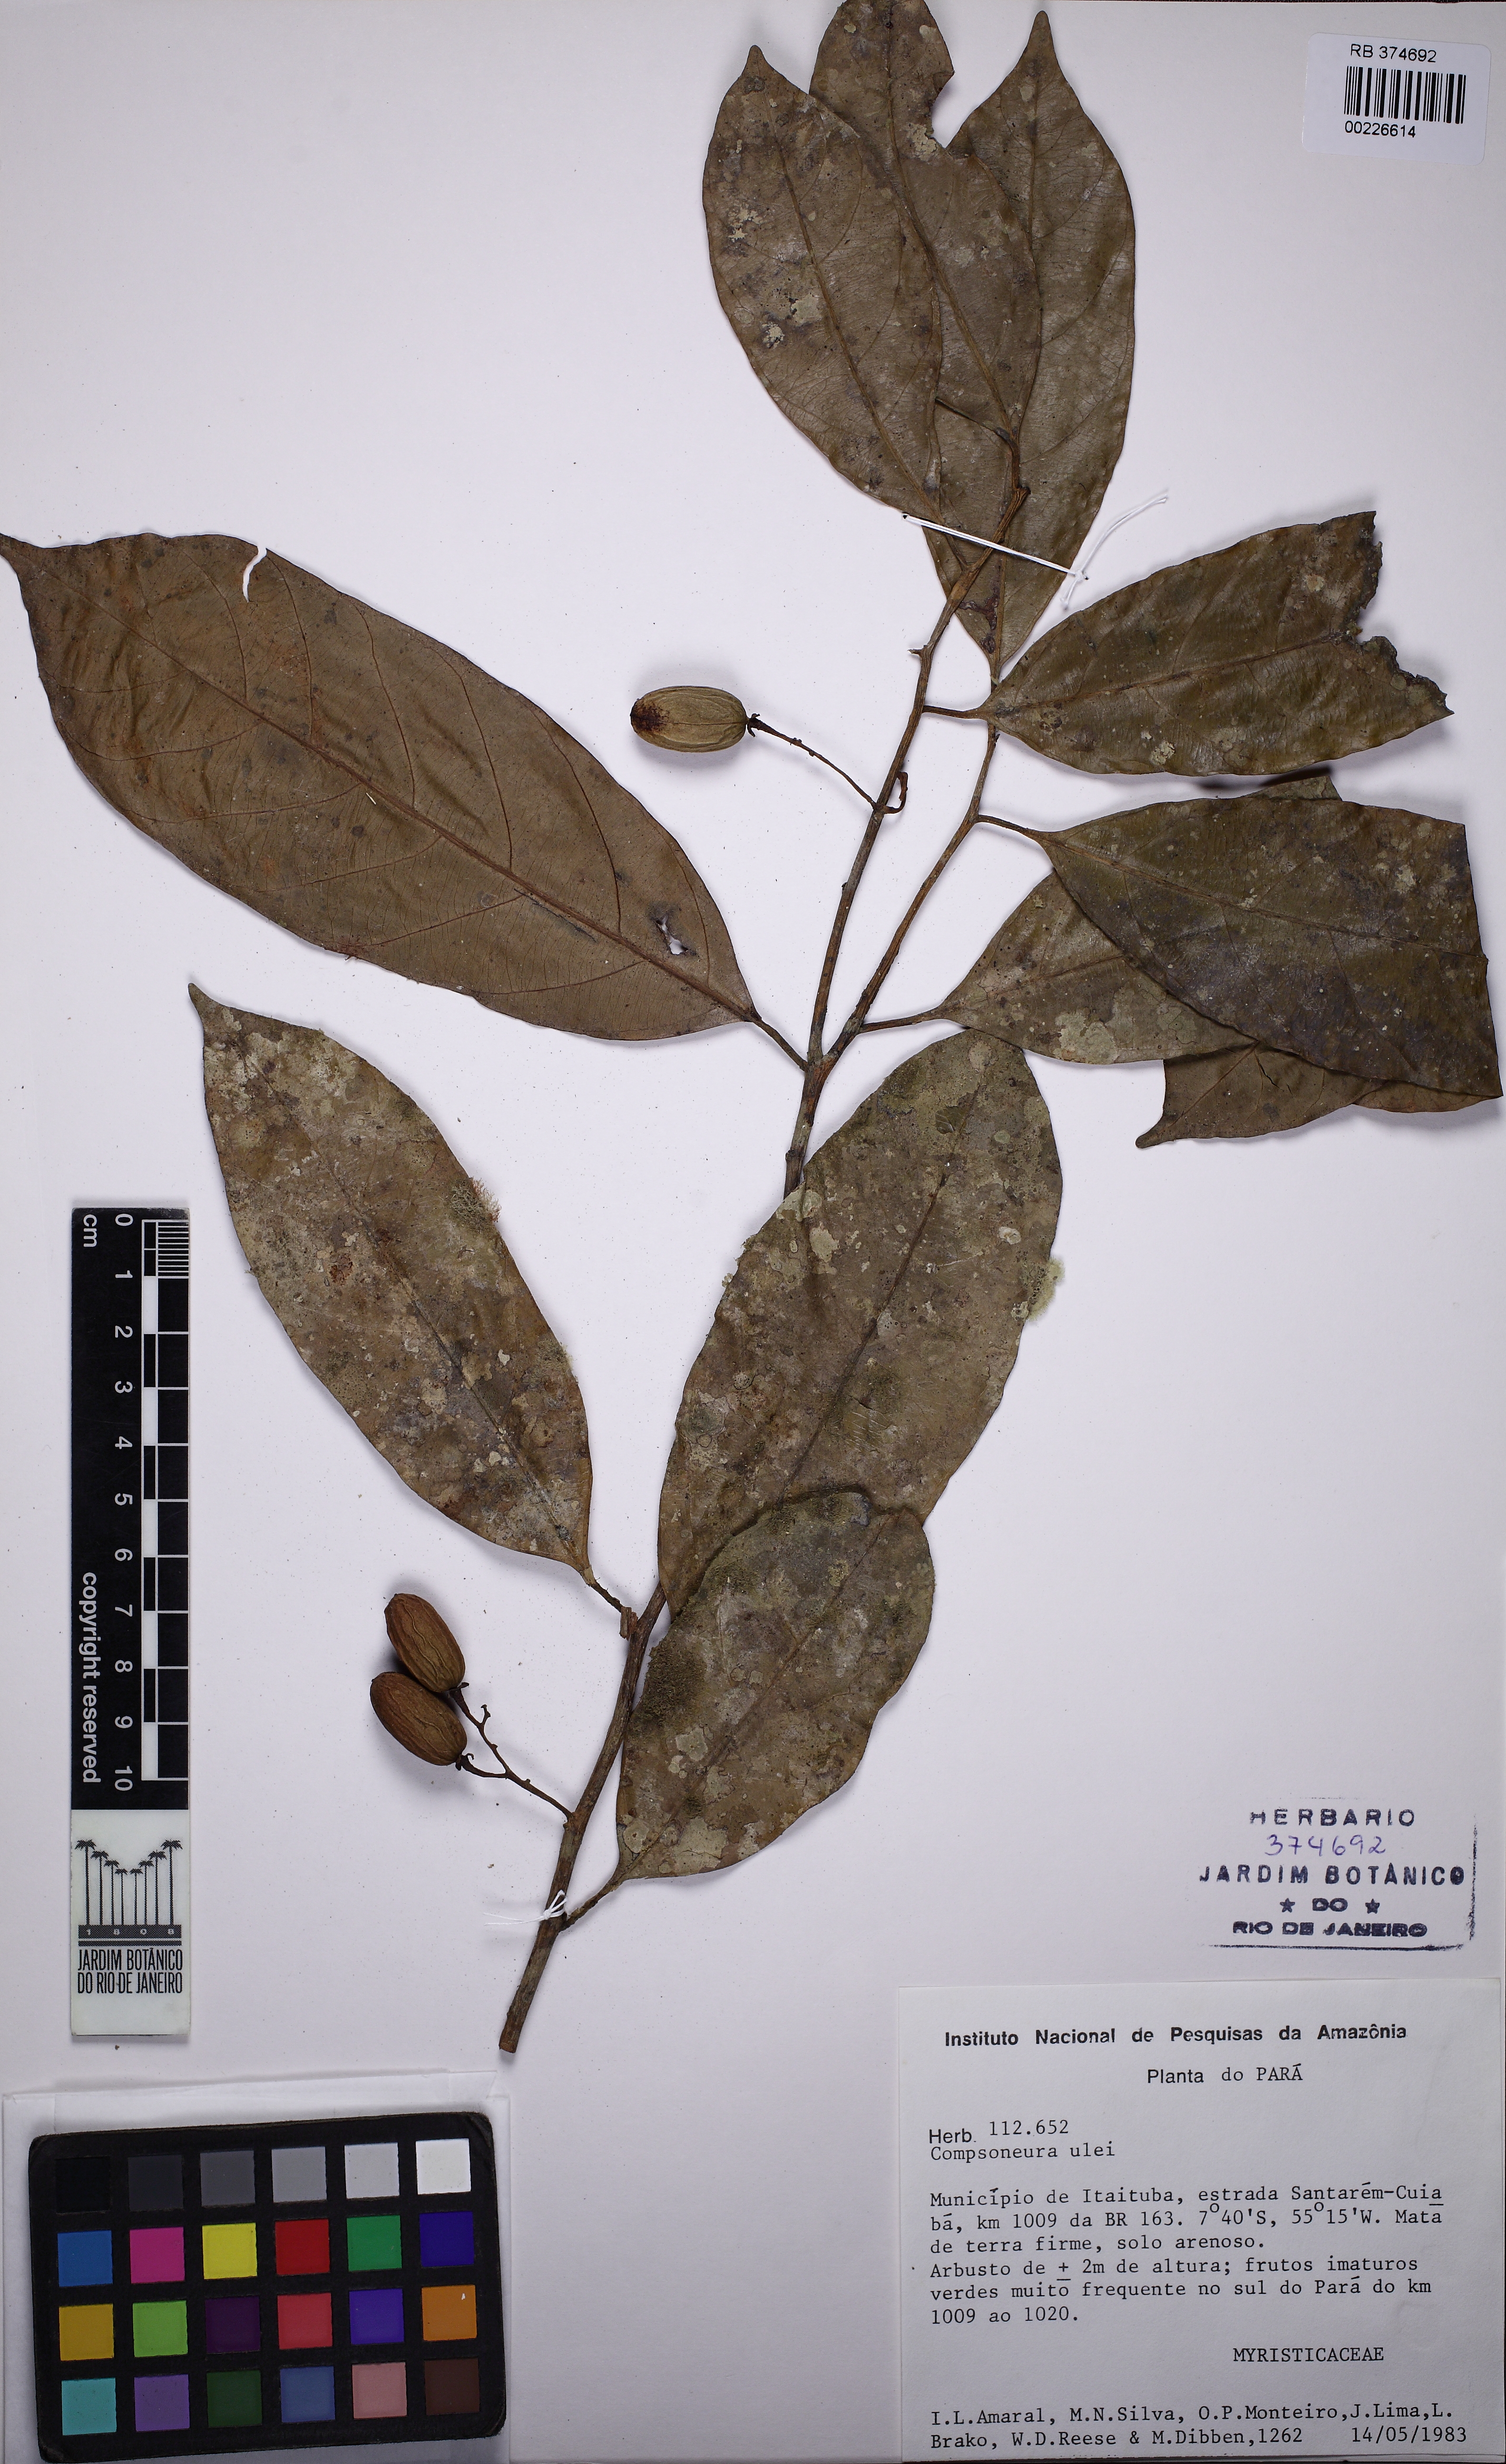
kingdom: Plantae
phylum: Tracheophyta
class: Magnoliopsida
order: Magnoliales
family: Myristicaceae
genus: Compsoneura
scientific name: Compsoneura ulei
